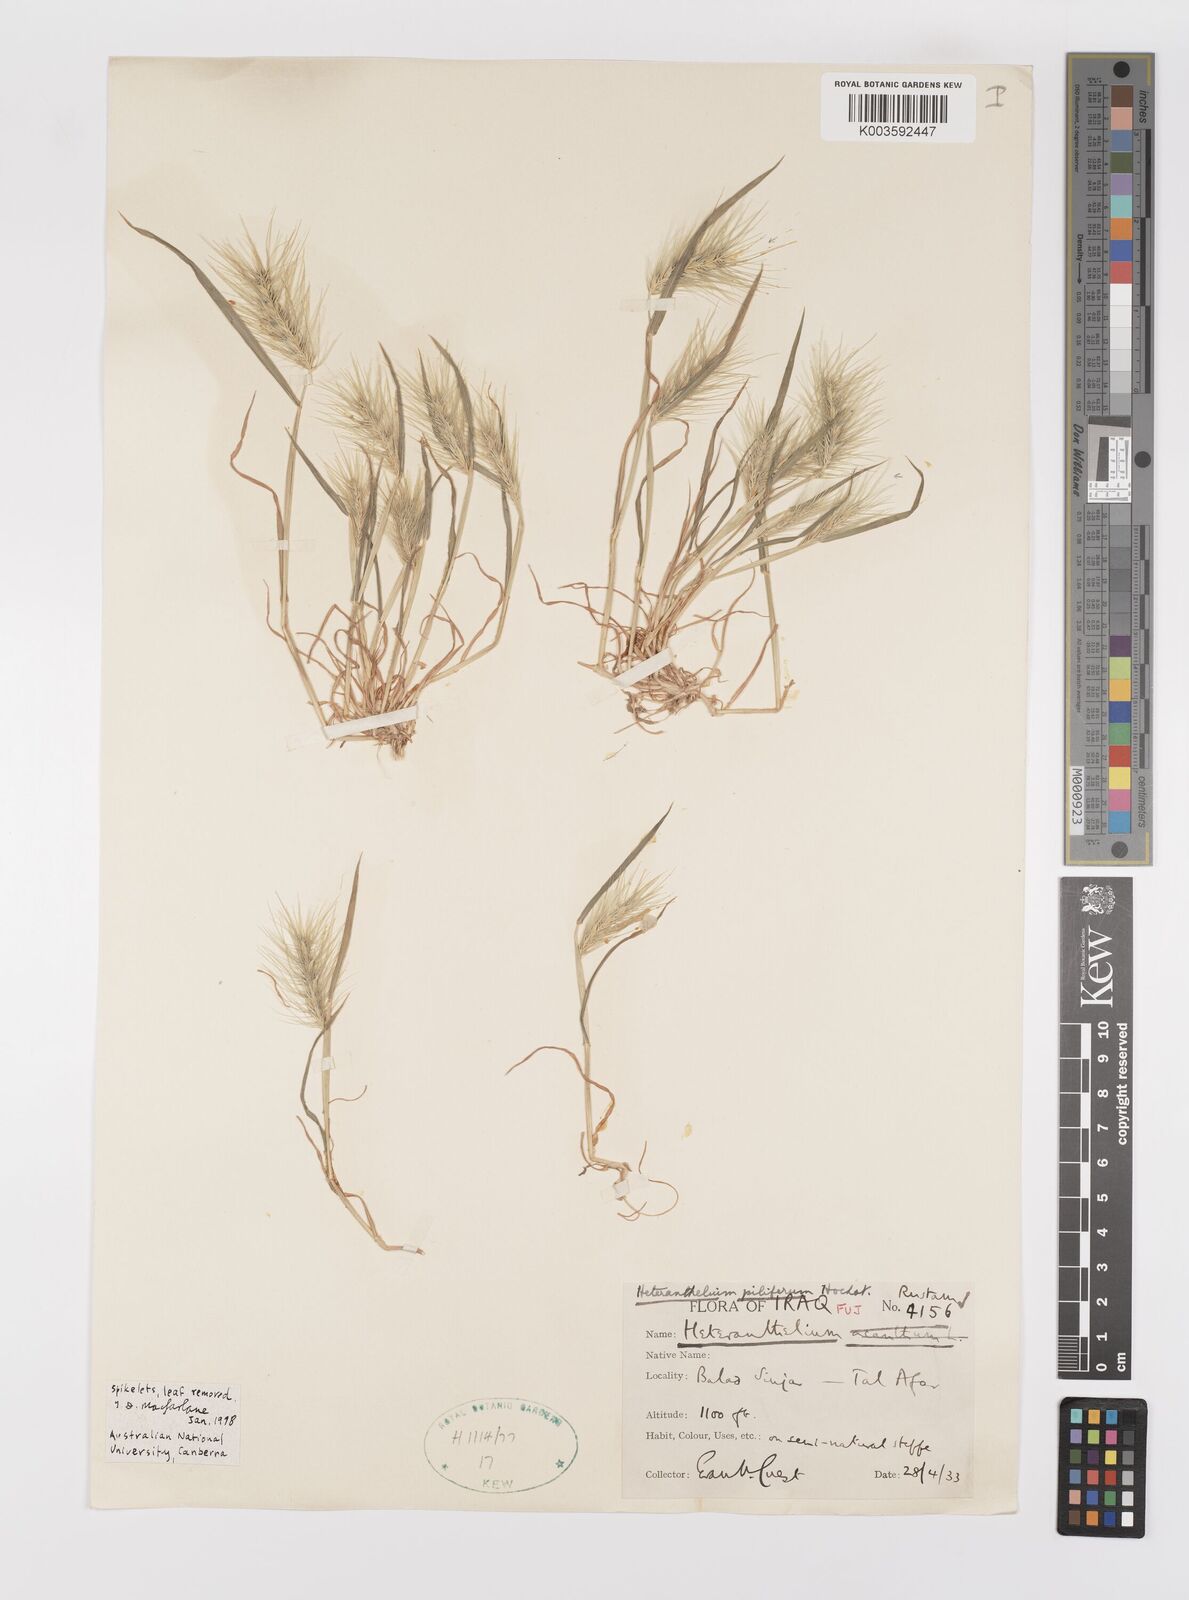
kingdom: Plantae
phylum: Tracheophyta
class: Liliopsida
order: Poales
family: Poaceae
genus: Heteranthelium
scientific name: Heteranthelium piliferum
